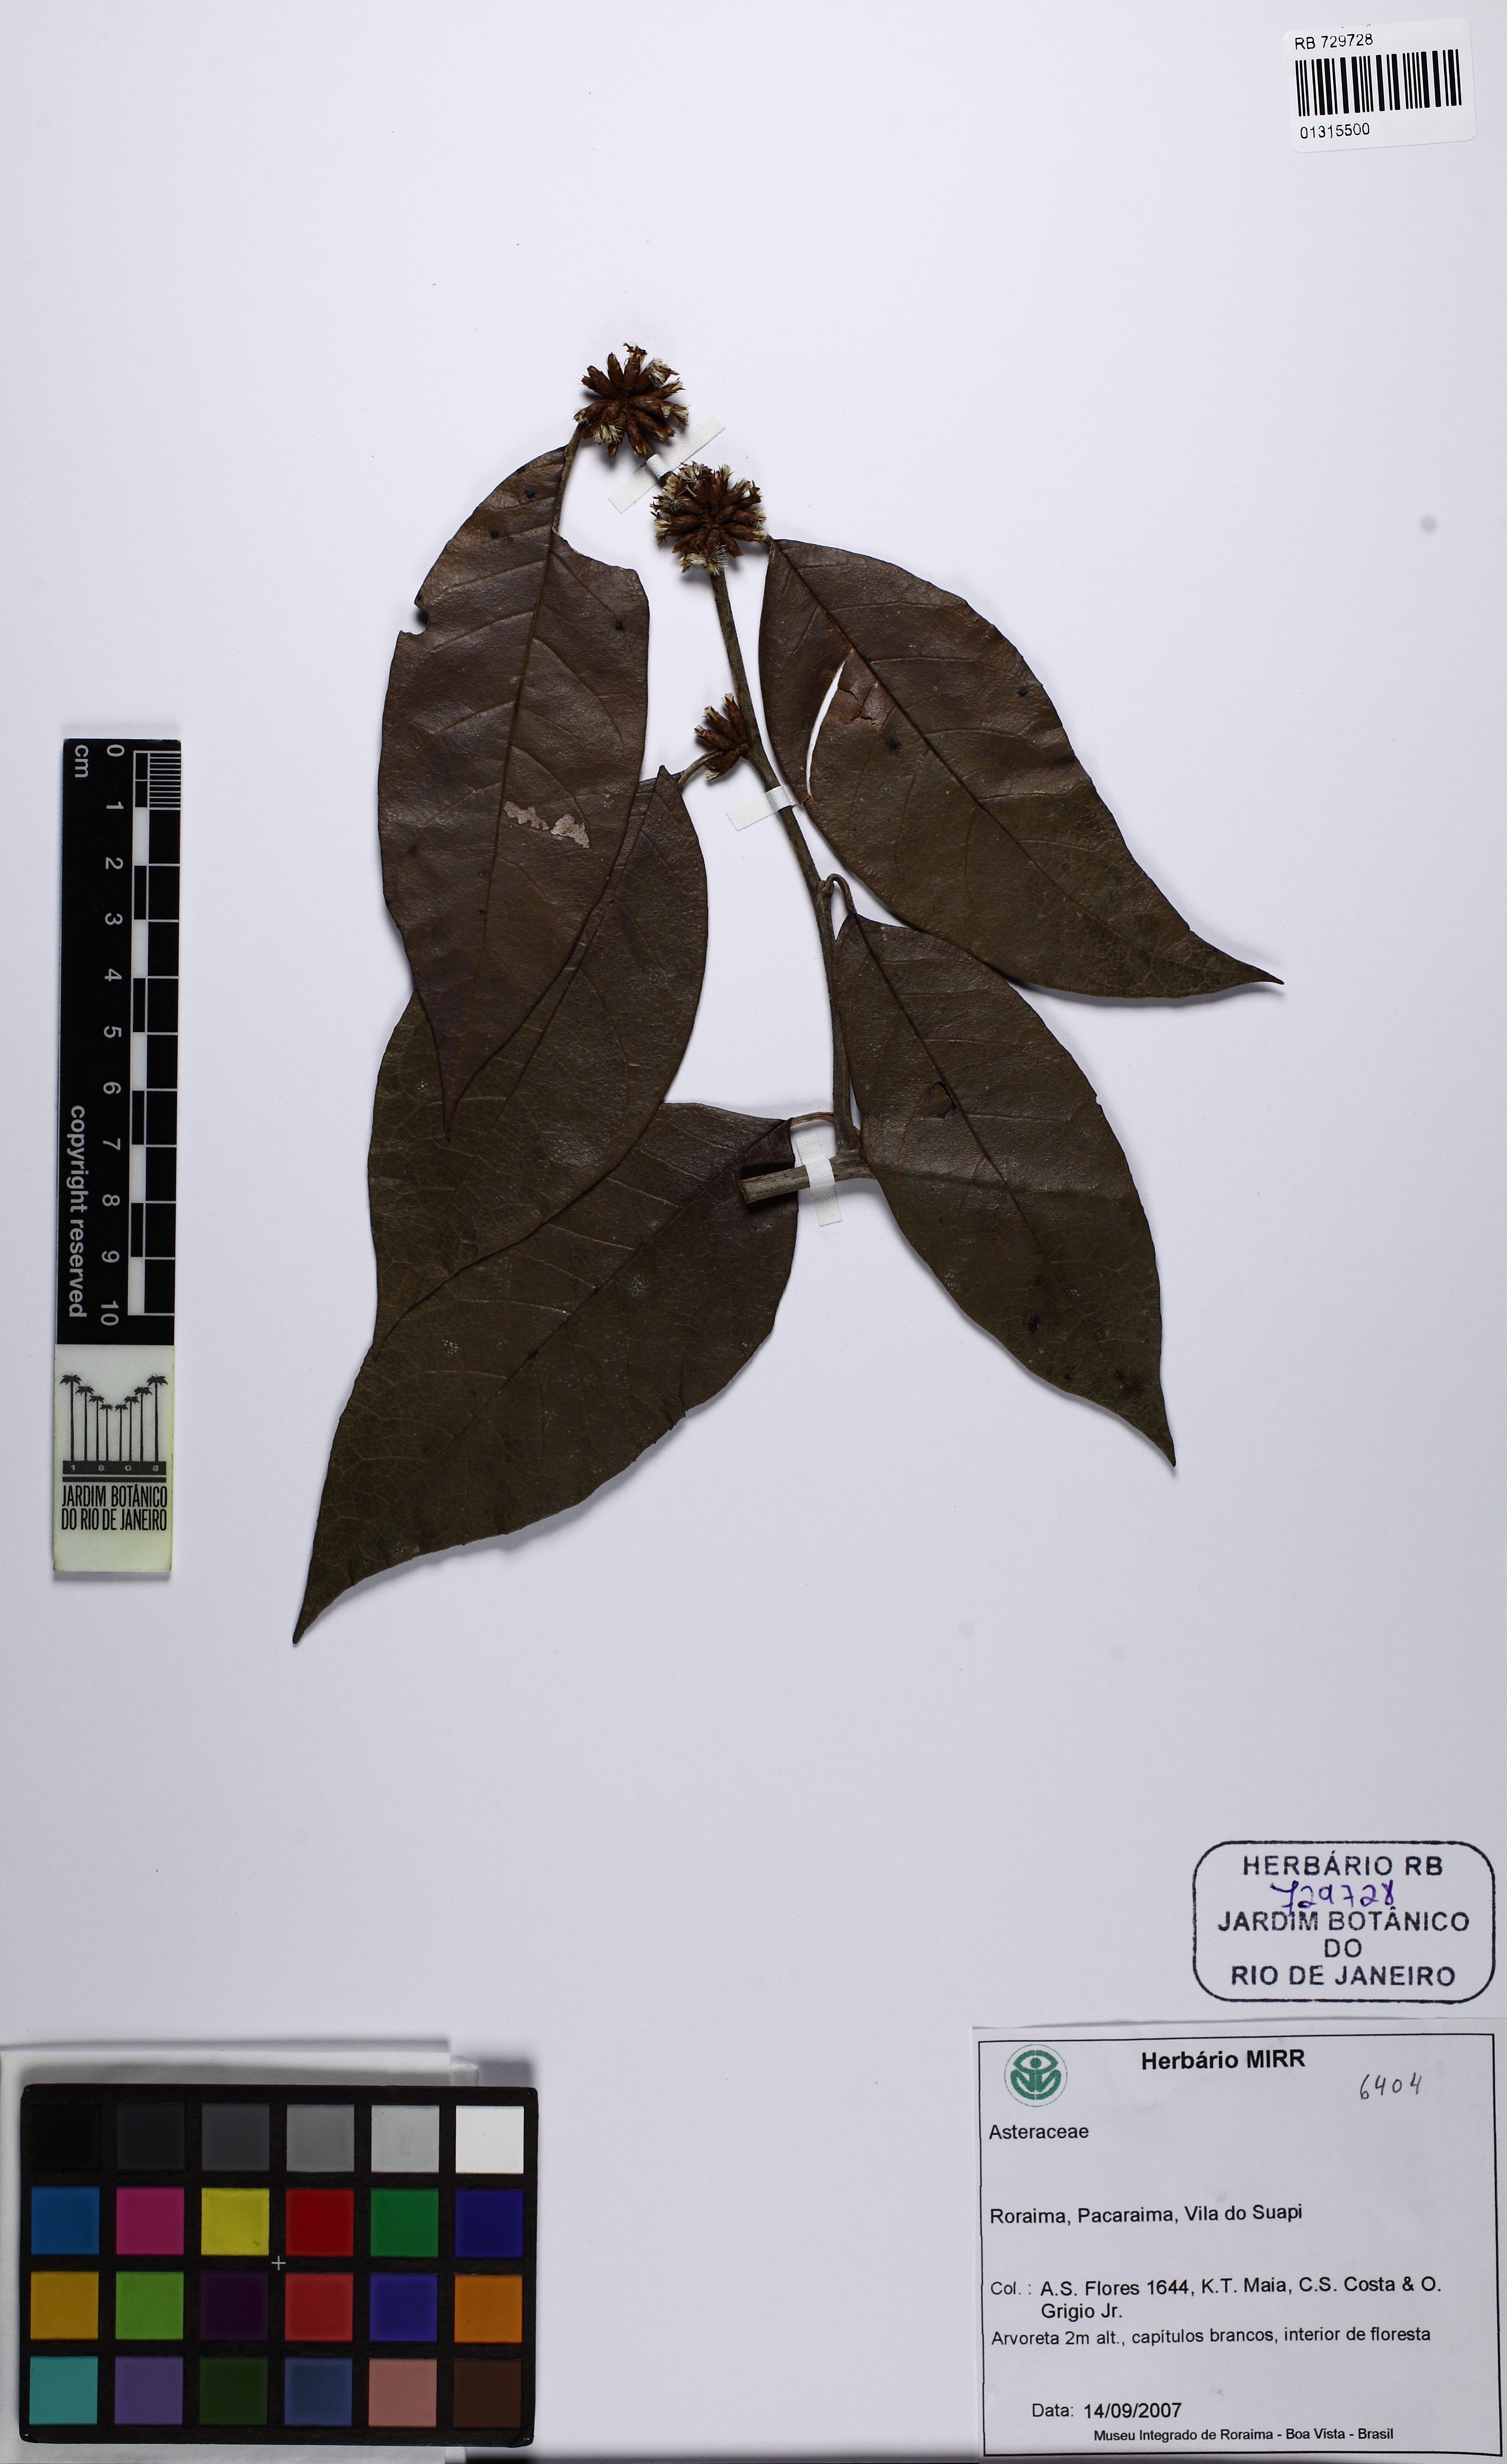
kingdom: Plantae
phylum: Tracheophyta
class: Magnoliopsida
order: Asterales
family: Asteraceae
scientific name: Asteraceae
